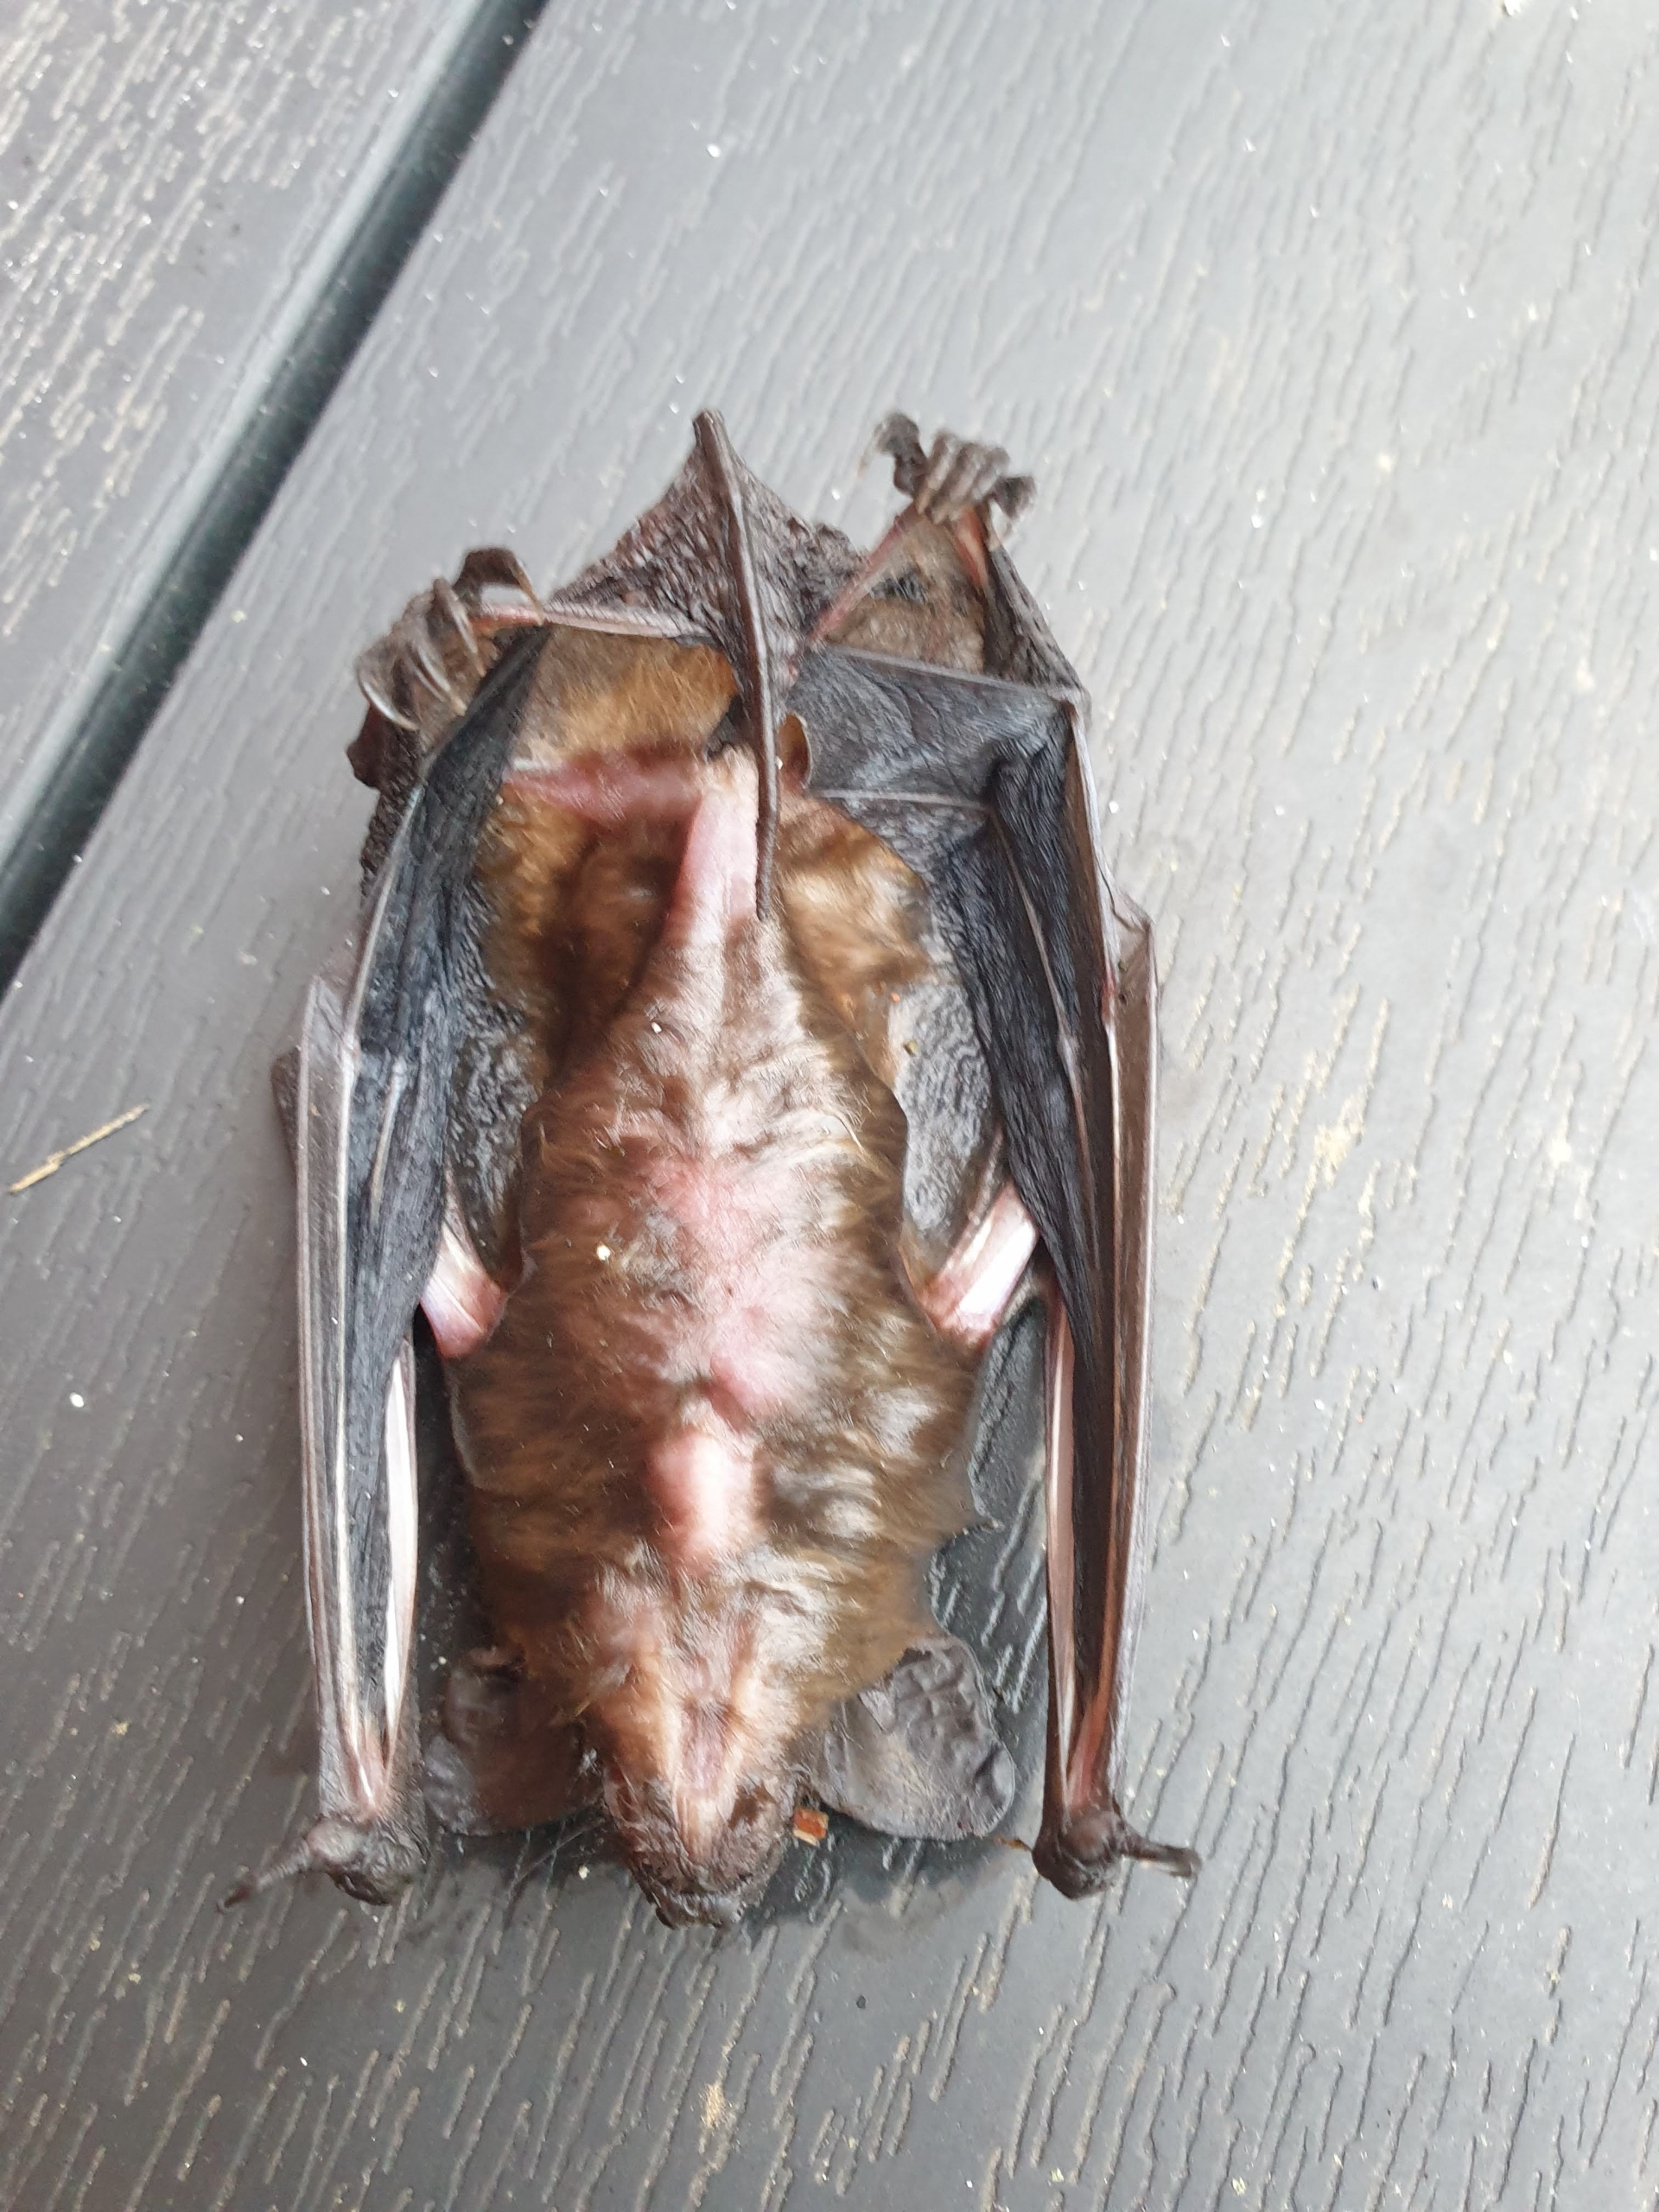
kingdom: Animalia
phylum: Chordata
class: Mammalia
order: Chiroptera
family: Vespertilionidae
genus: Eptesicus
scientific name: Eptesicus serotinus
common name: Sydflagermus
